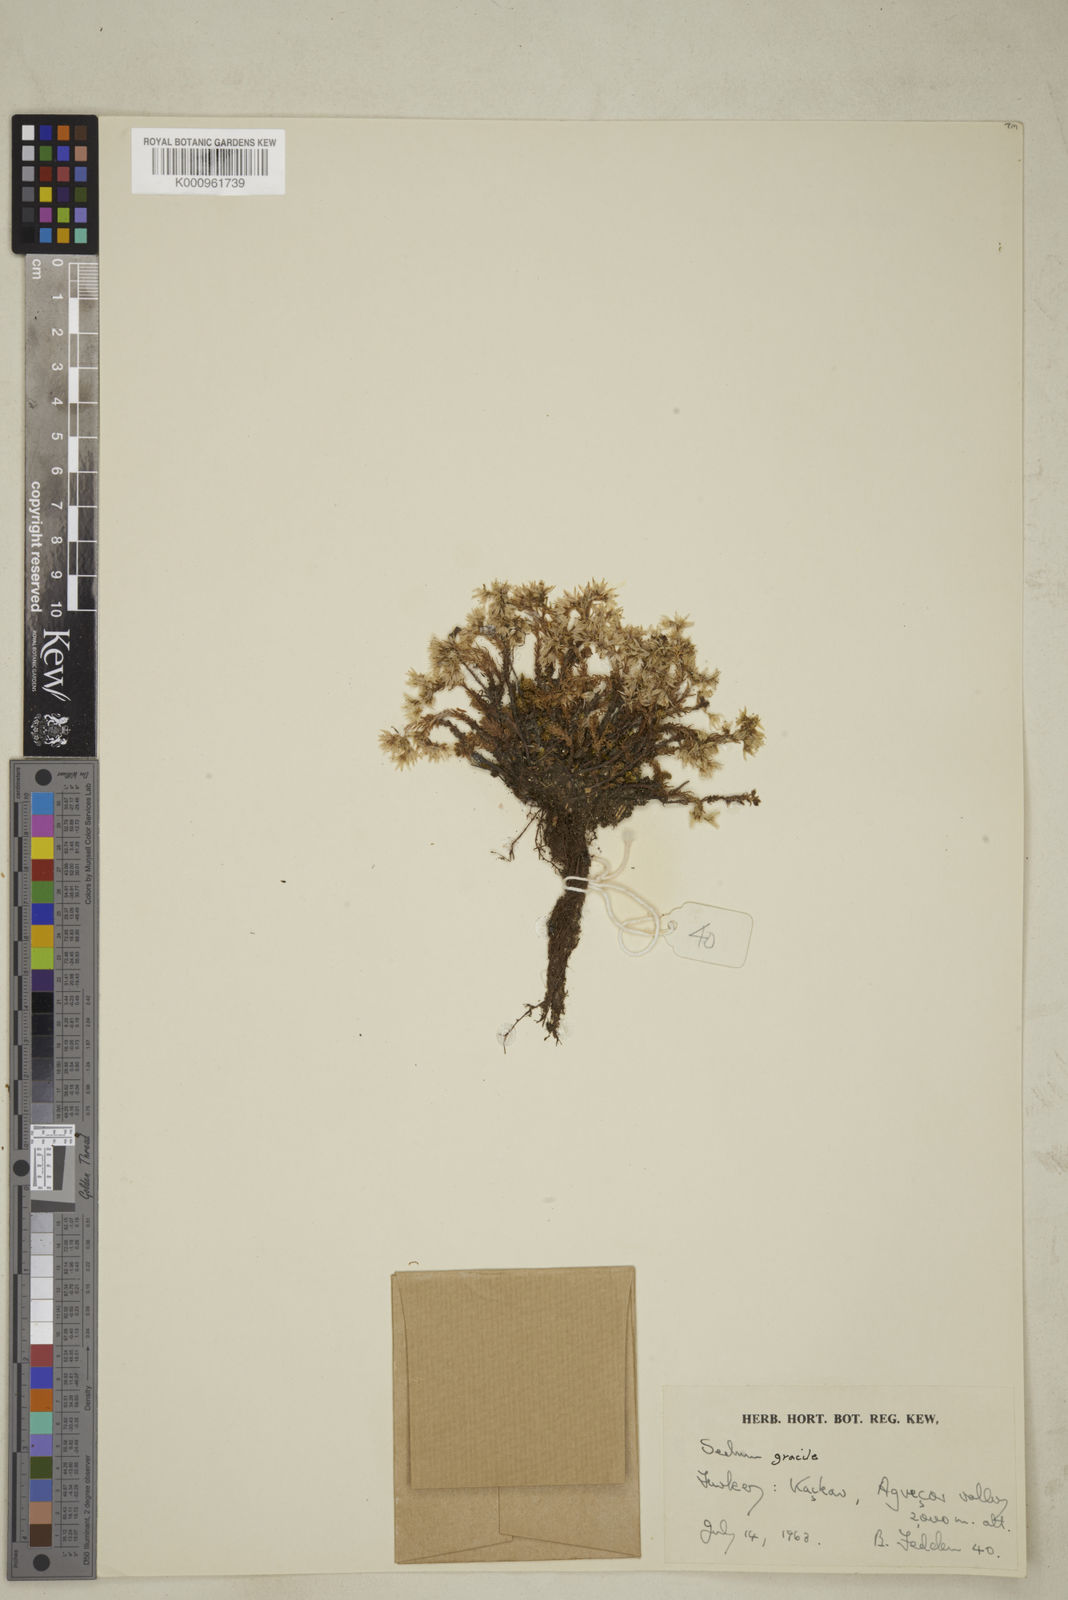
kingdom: Plantae
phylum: Tracheophyta
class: Magnoliopsida
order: Saxifragales
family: Crassulaceae
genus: Sedum
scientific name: Sedum gracile
